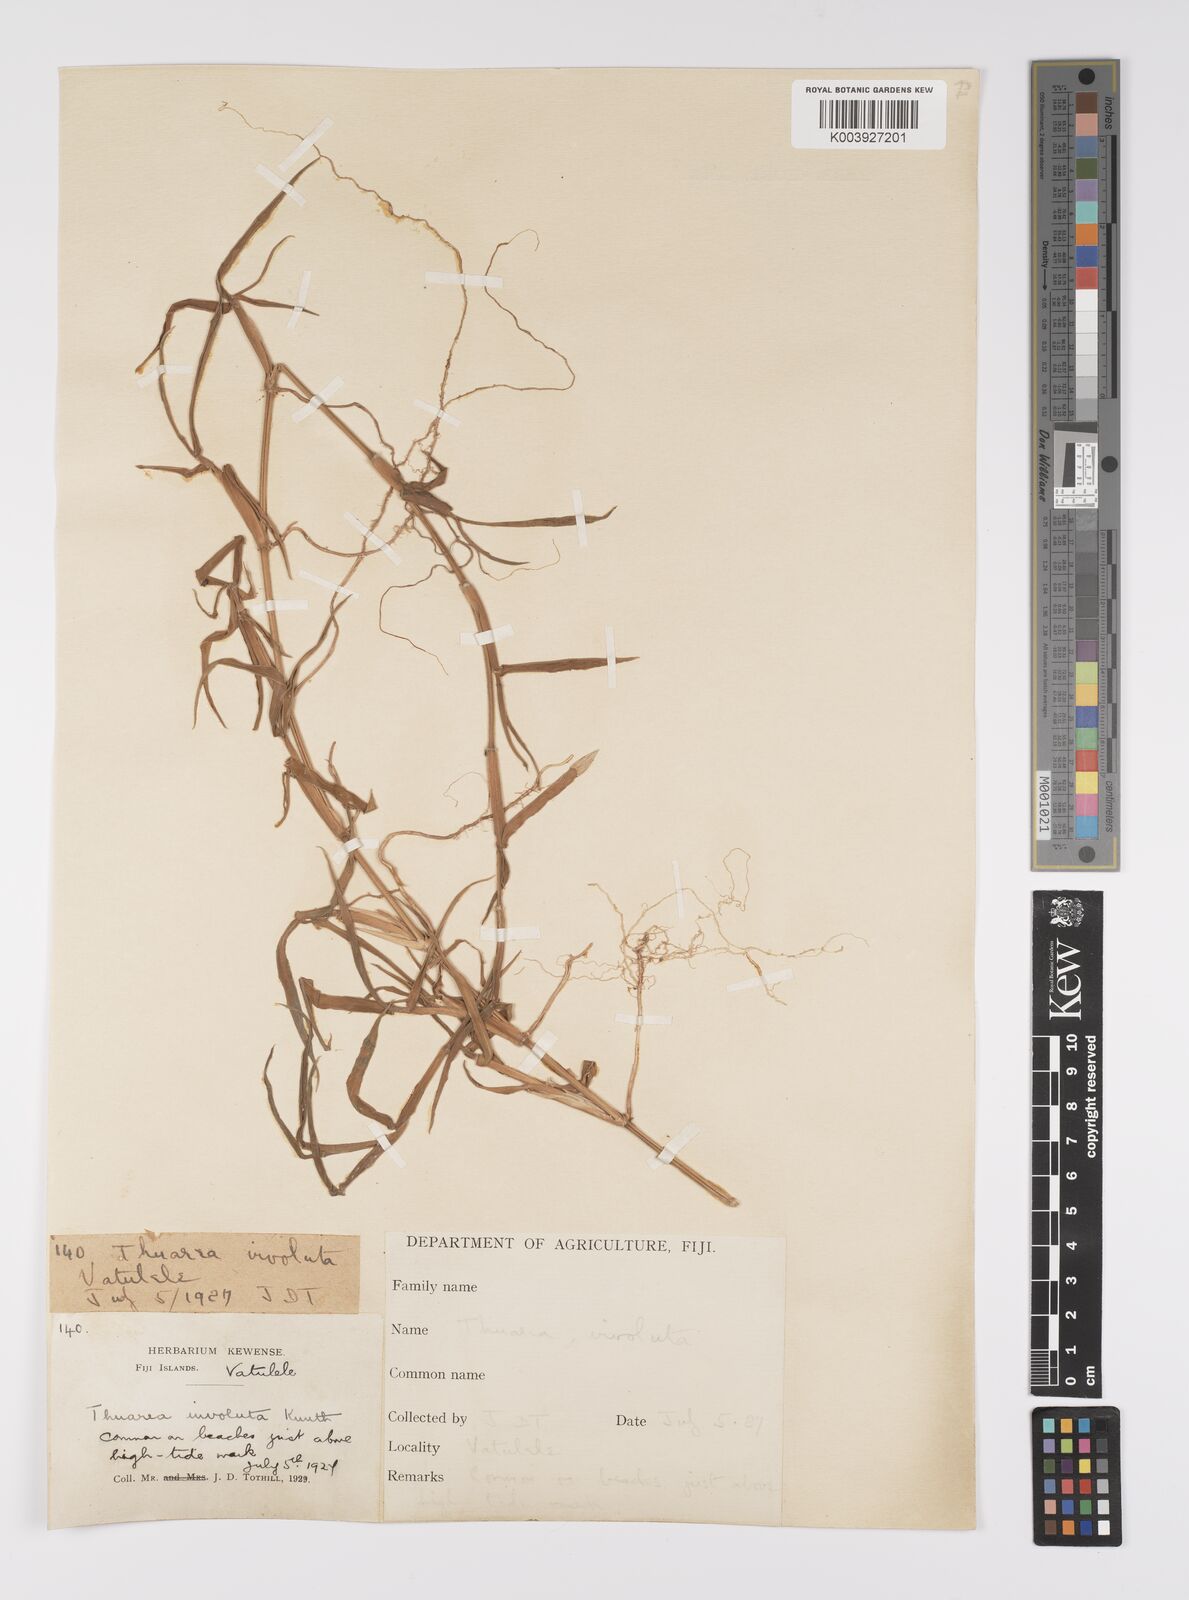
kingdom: Plantae
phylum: Tracheophyta
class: Liliopsida
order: Poales
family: Poaceae
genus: Thuarea
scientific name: Thuarea involuta
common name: Tropical beach grass
